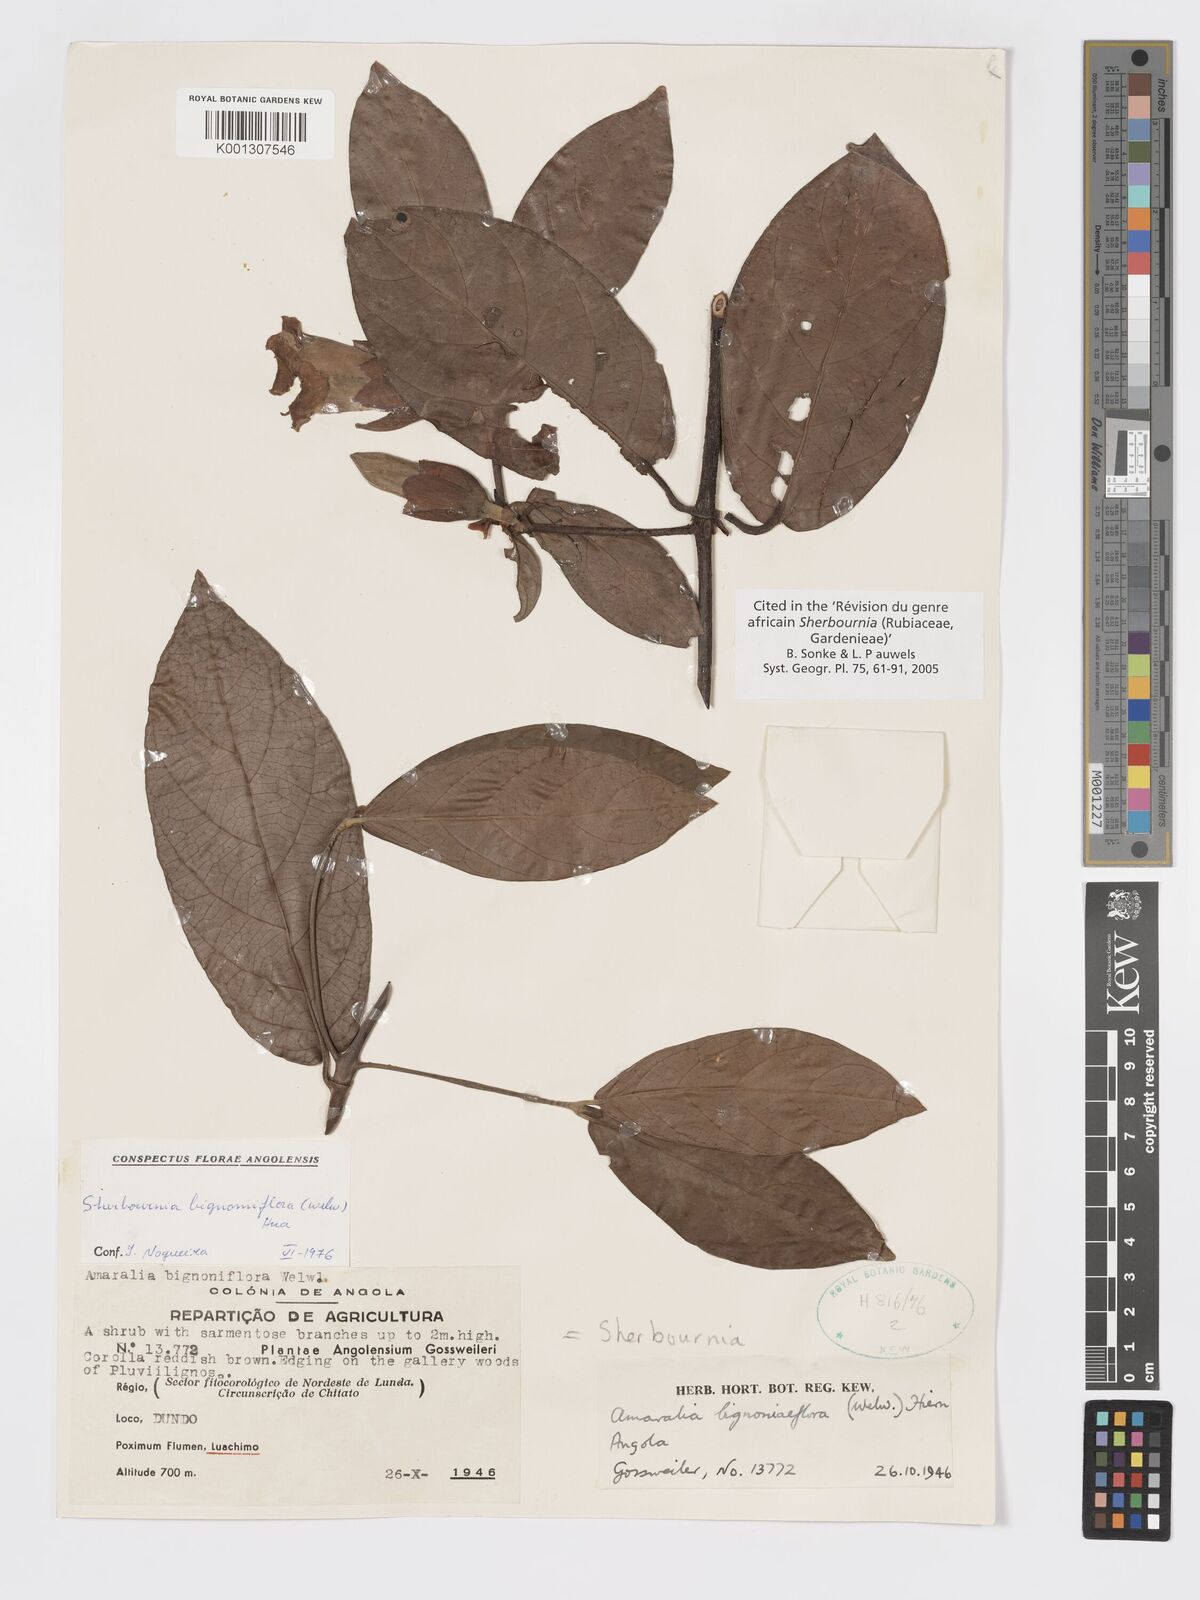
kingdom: Plantae
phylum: Tracheophyta
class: Magnoliopsida
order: Gentianales
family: Rubiaceae
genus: Sherbournia
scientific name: Sherbournia
